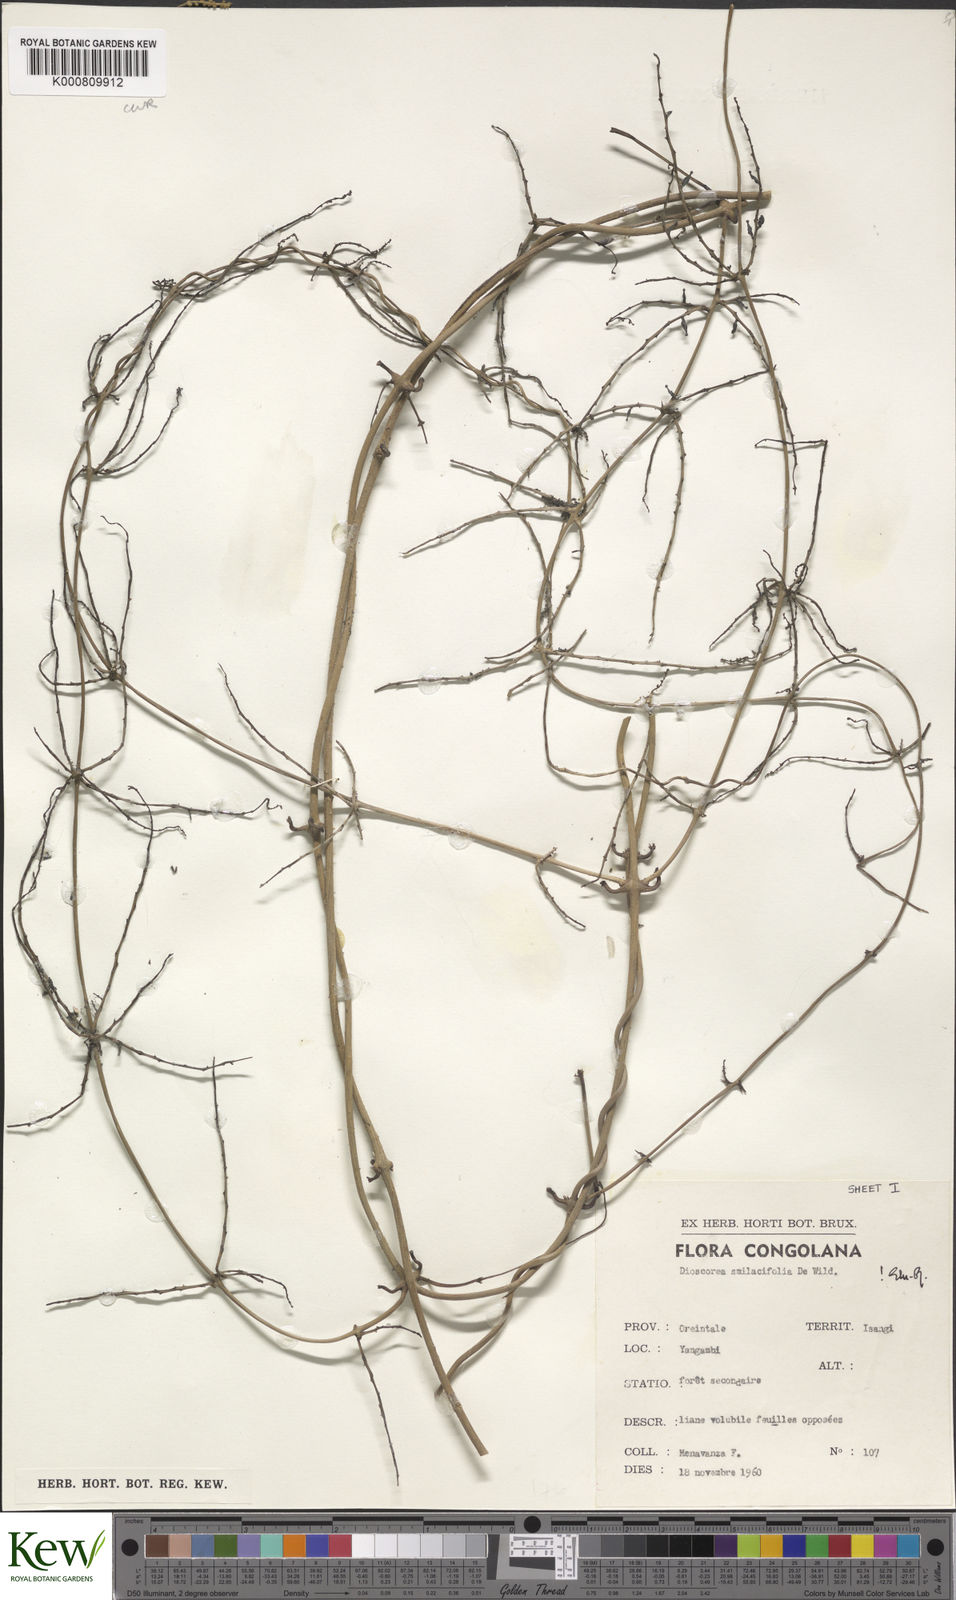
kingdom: Plantae
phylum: Tracheophyta
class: Liliopsida
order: Dioscoreales
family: Dioscoreaceae
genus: Dioscorea
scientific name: Dioscorea smilacifolia
